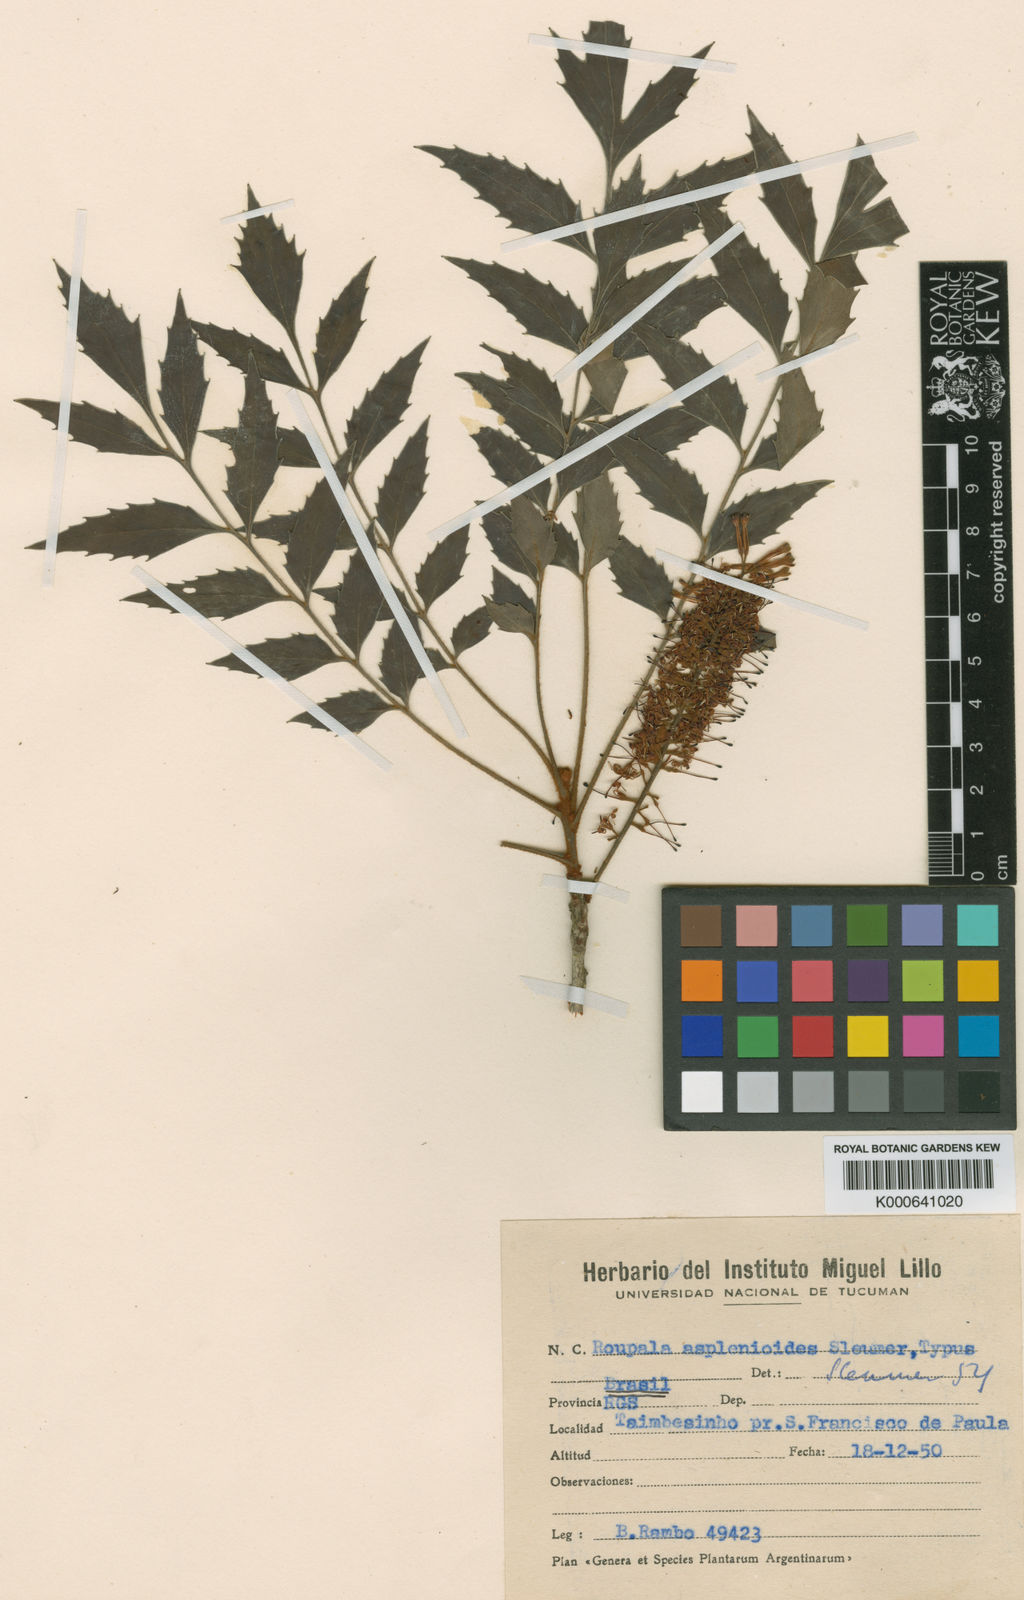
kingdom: Plantae
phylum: Tracheophyta
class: Magnoliopsida
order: Proteales
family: Proteaceae
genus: Roupala
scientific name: Roupala asplenioides
